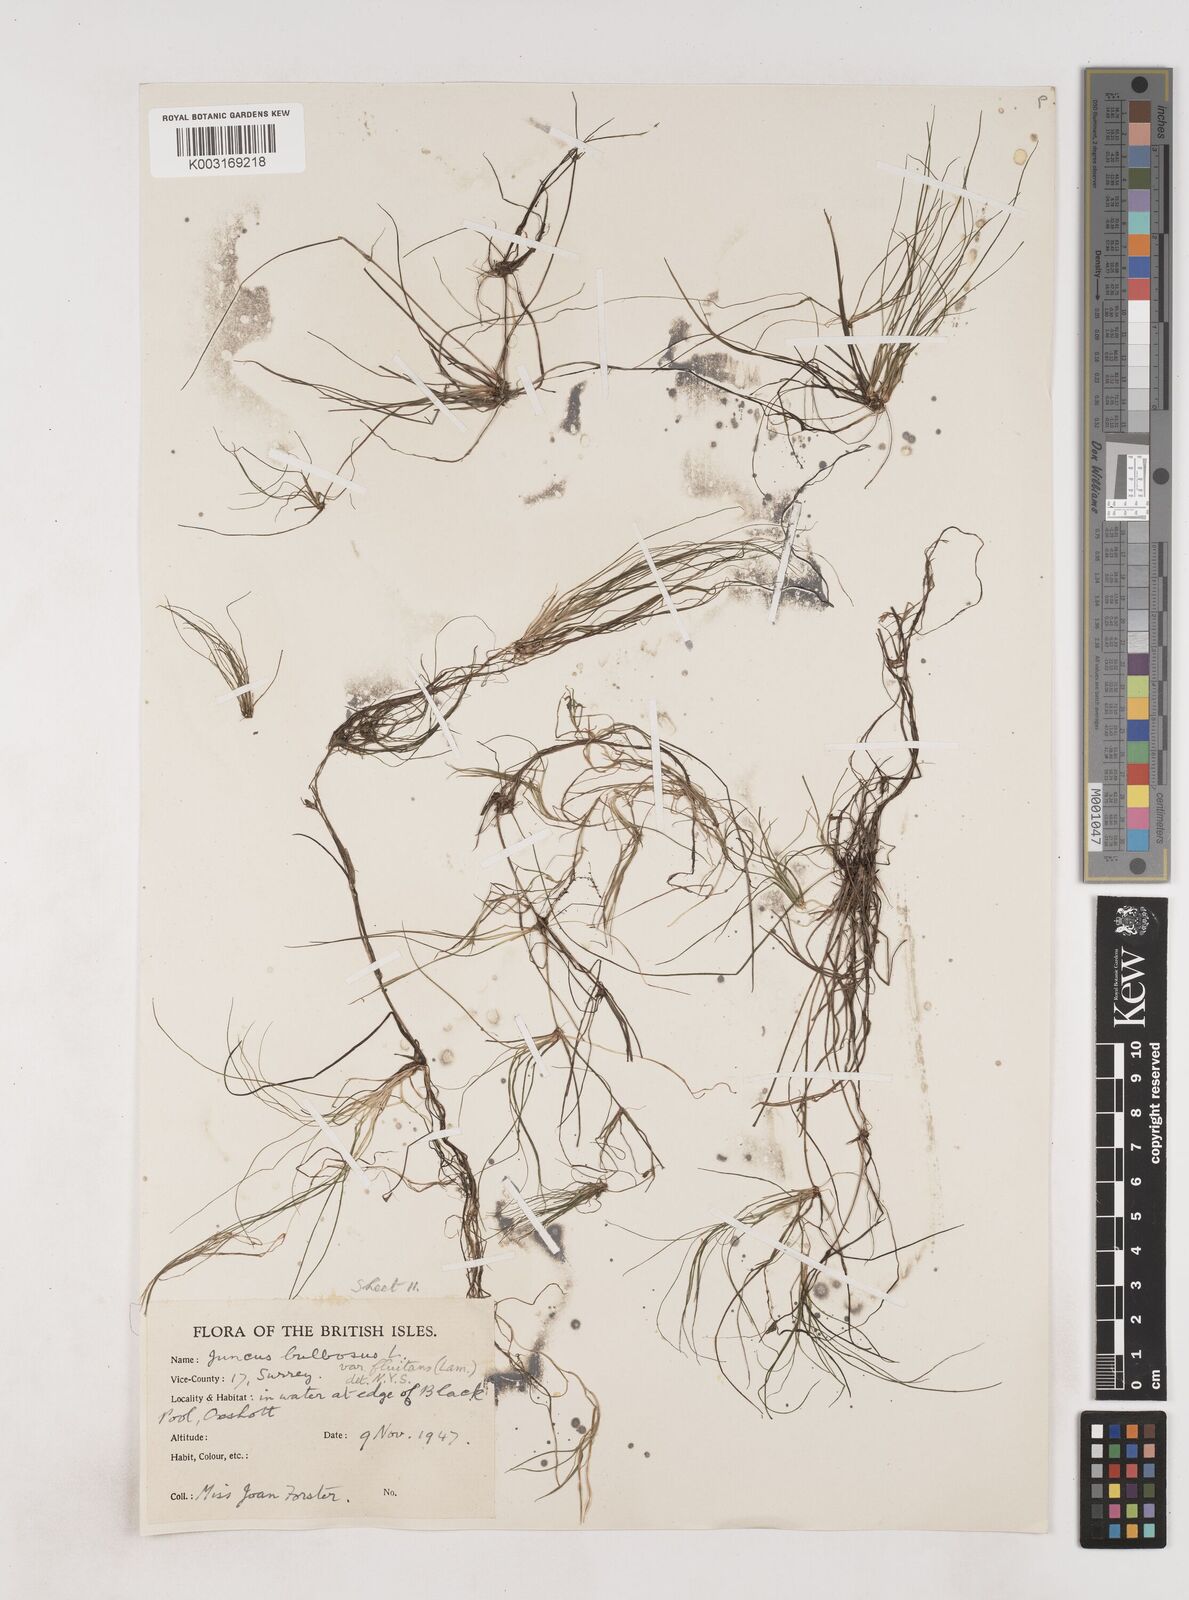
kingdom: Plantae
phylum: Tracheophyta
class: Liliopsida
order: Poales
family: Juncaceae
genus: Juncus
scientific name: Juncus bulbosus
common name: Bulbous rush
